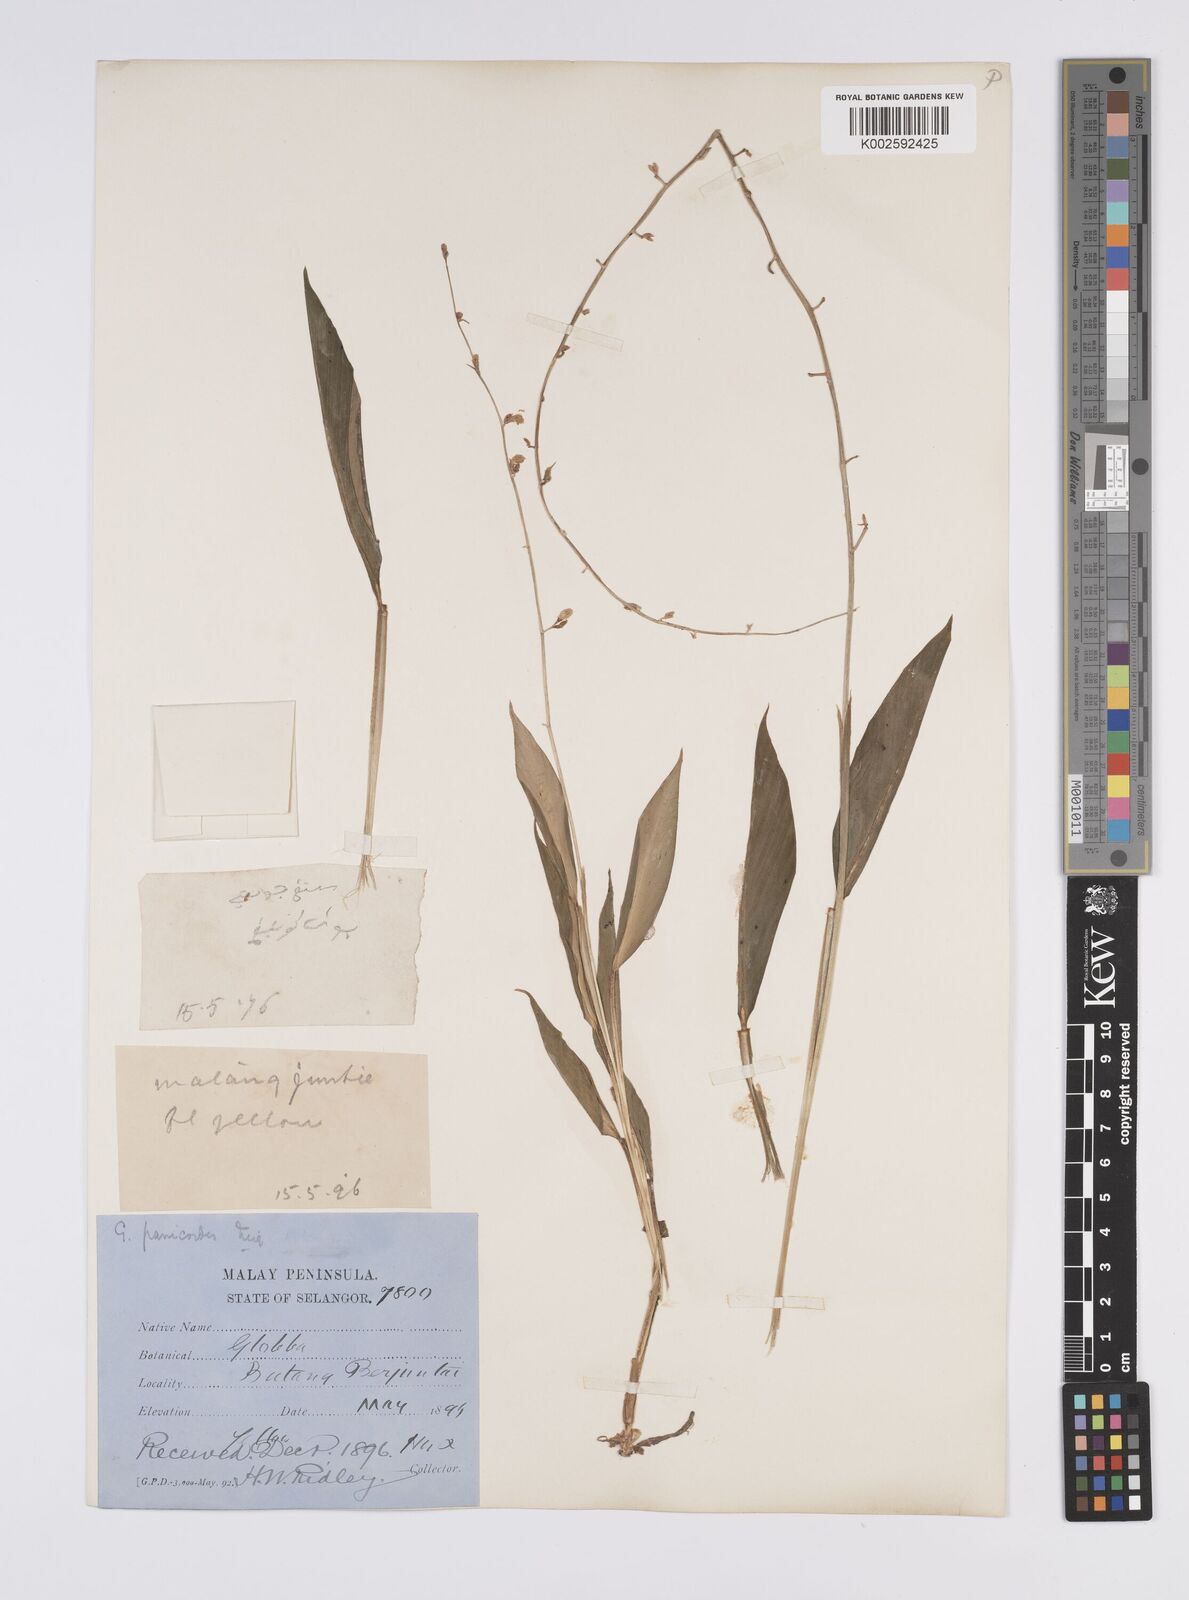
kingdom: Plantae
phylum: Tracheophyta
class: Liliopsida
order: Zingiberales
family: Zingiberaceae
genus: Globba
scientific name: Globba pendula
